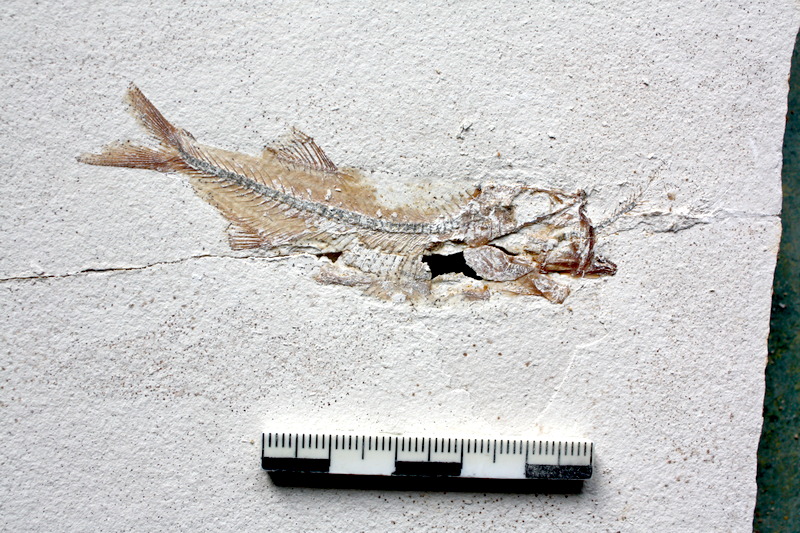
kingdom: Animalia
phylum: Chordata
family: Ascalaboidae
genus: Ebertichthys
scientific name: Ebertichthys ettlingensis
